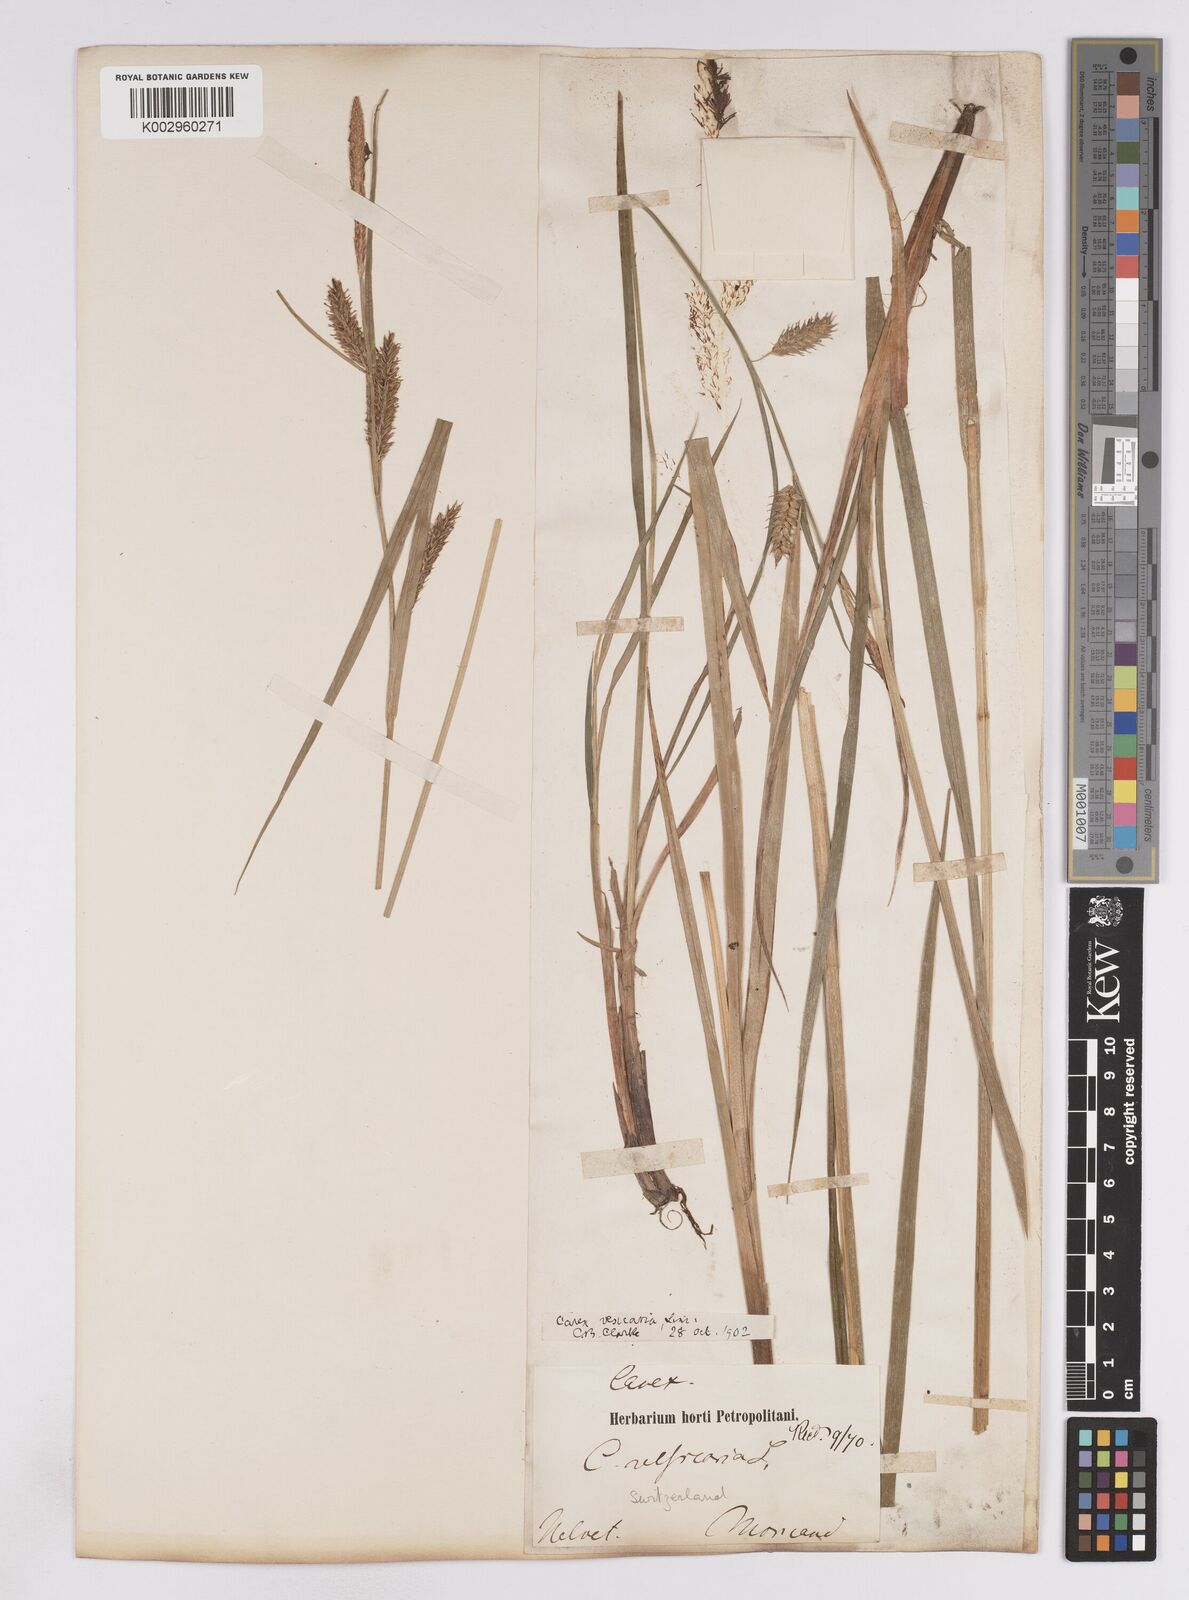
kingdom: Plantae
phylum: Tracheophyta
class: Liliopsida
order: Poales
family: Cyperaceae
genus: Carex
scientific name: Carex vesicaria
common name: Bladder-sedge
